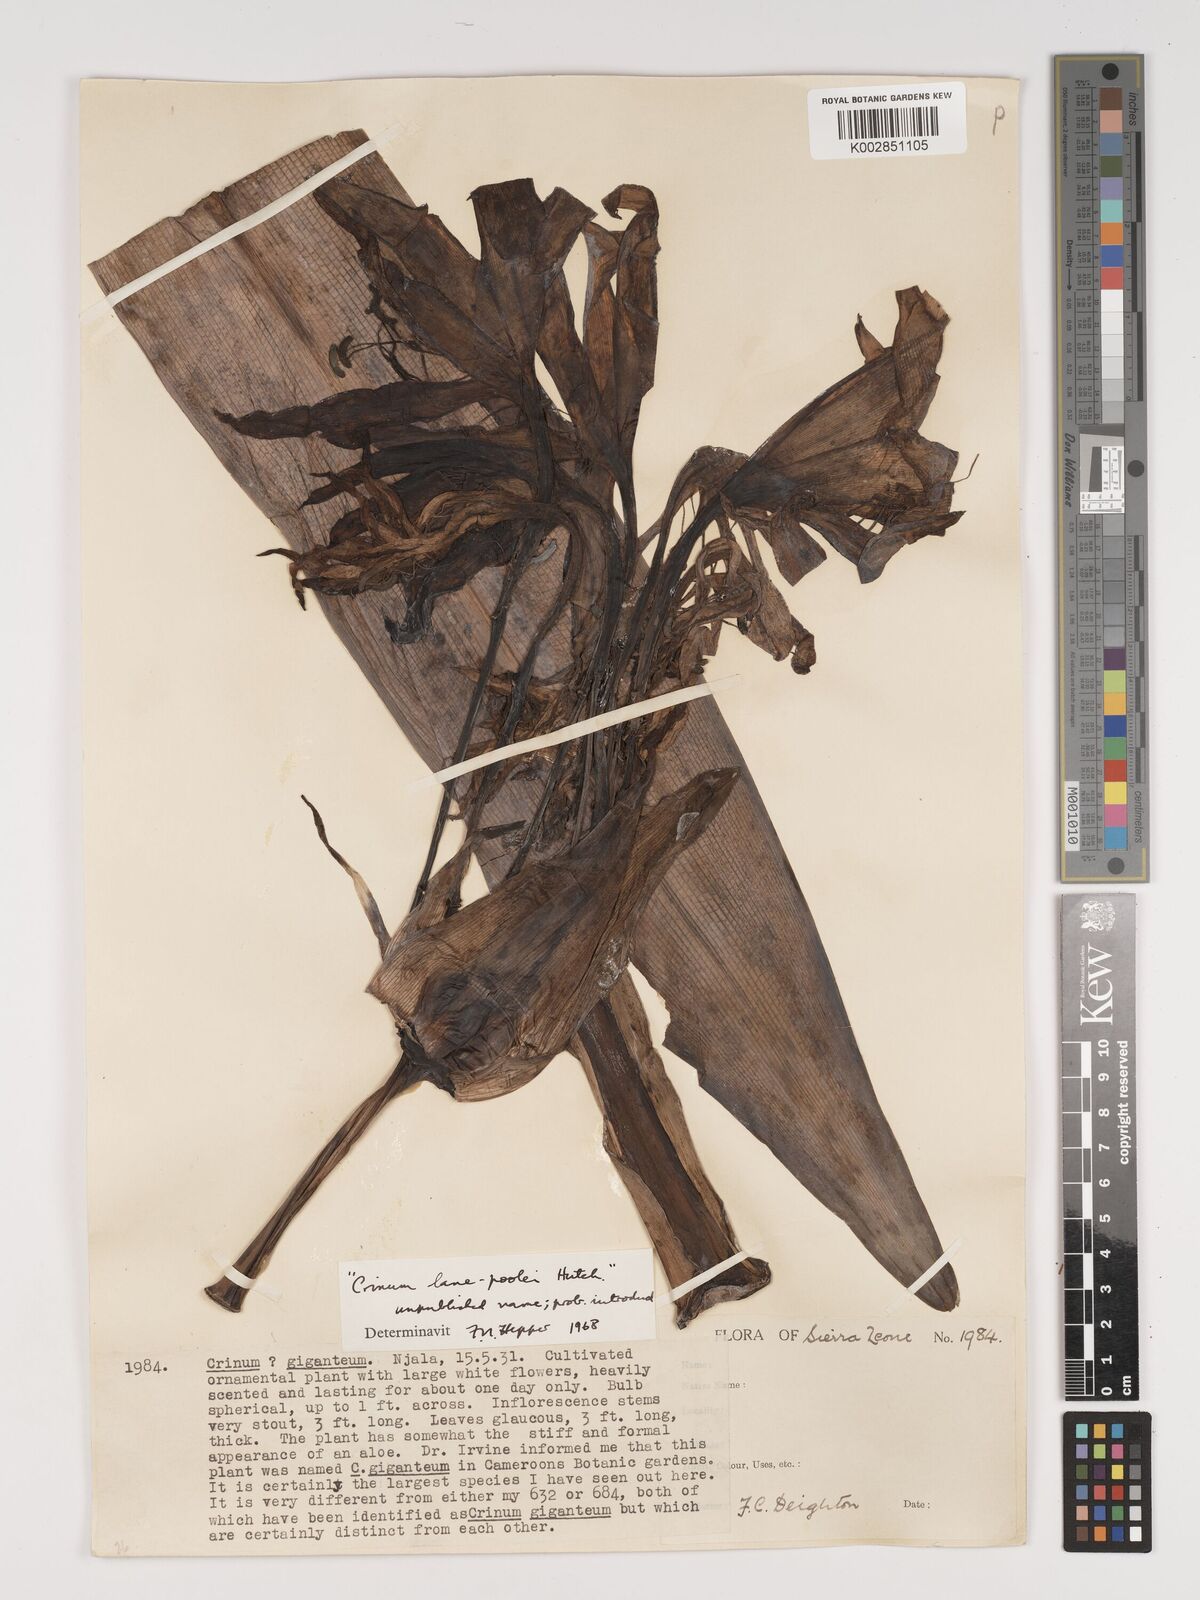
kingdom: Plantae
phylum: Tracheophyta
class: Liliopsida
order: Asparagales
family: Amaryllidaceae
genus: Crinum
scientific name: Crinum
